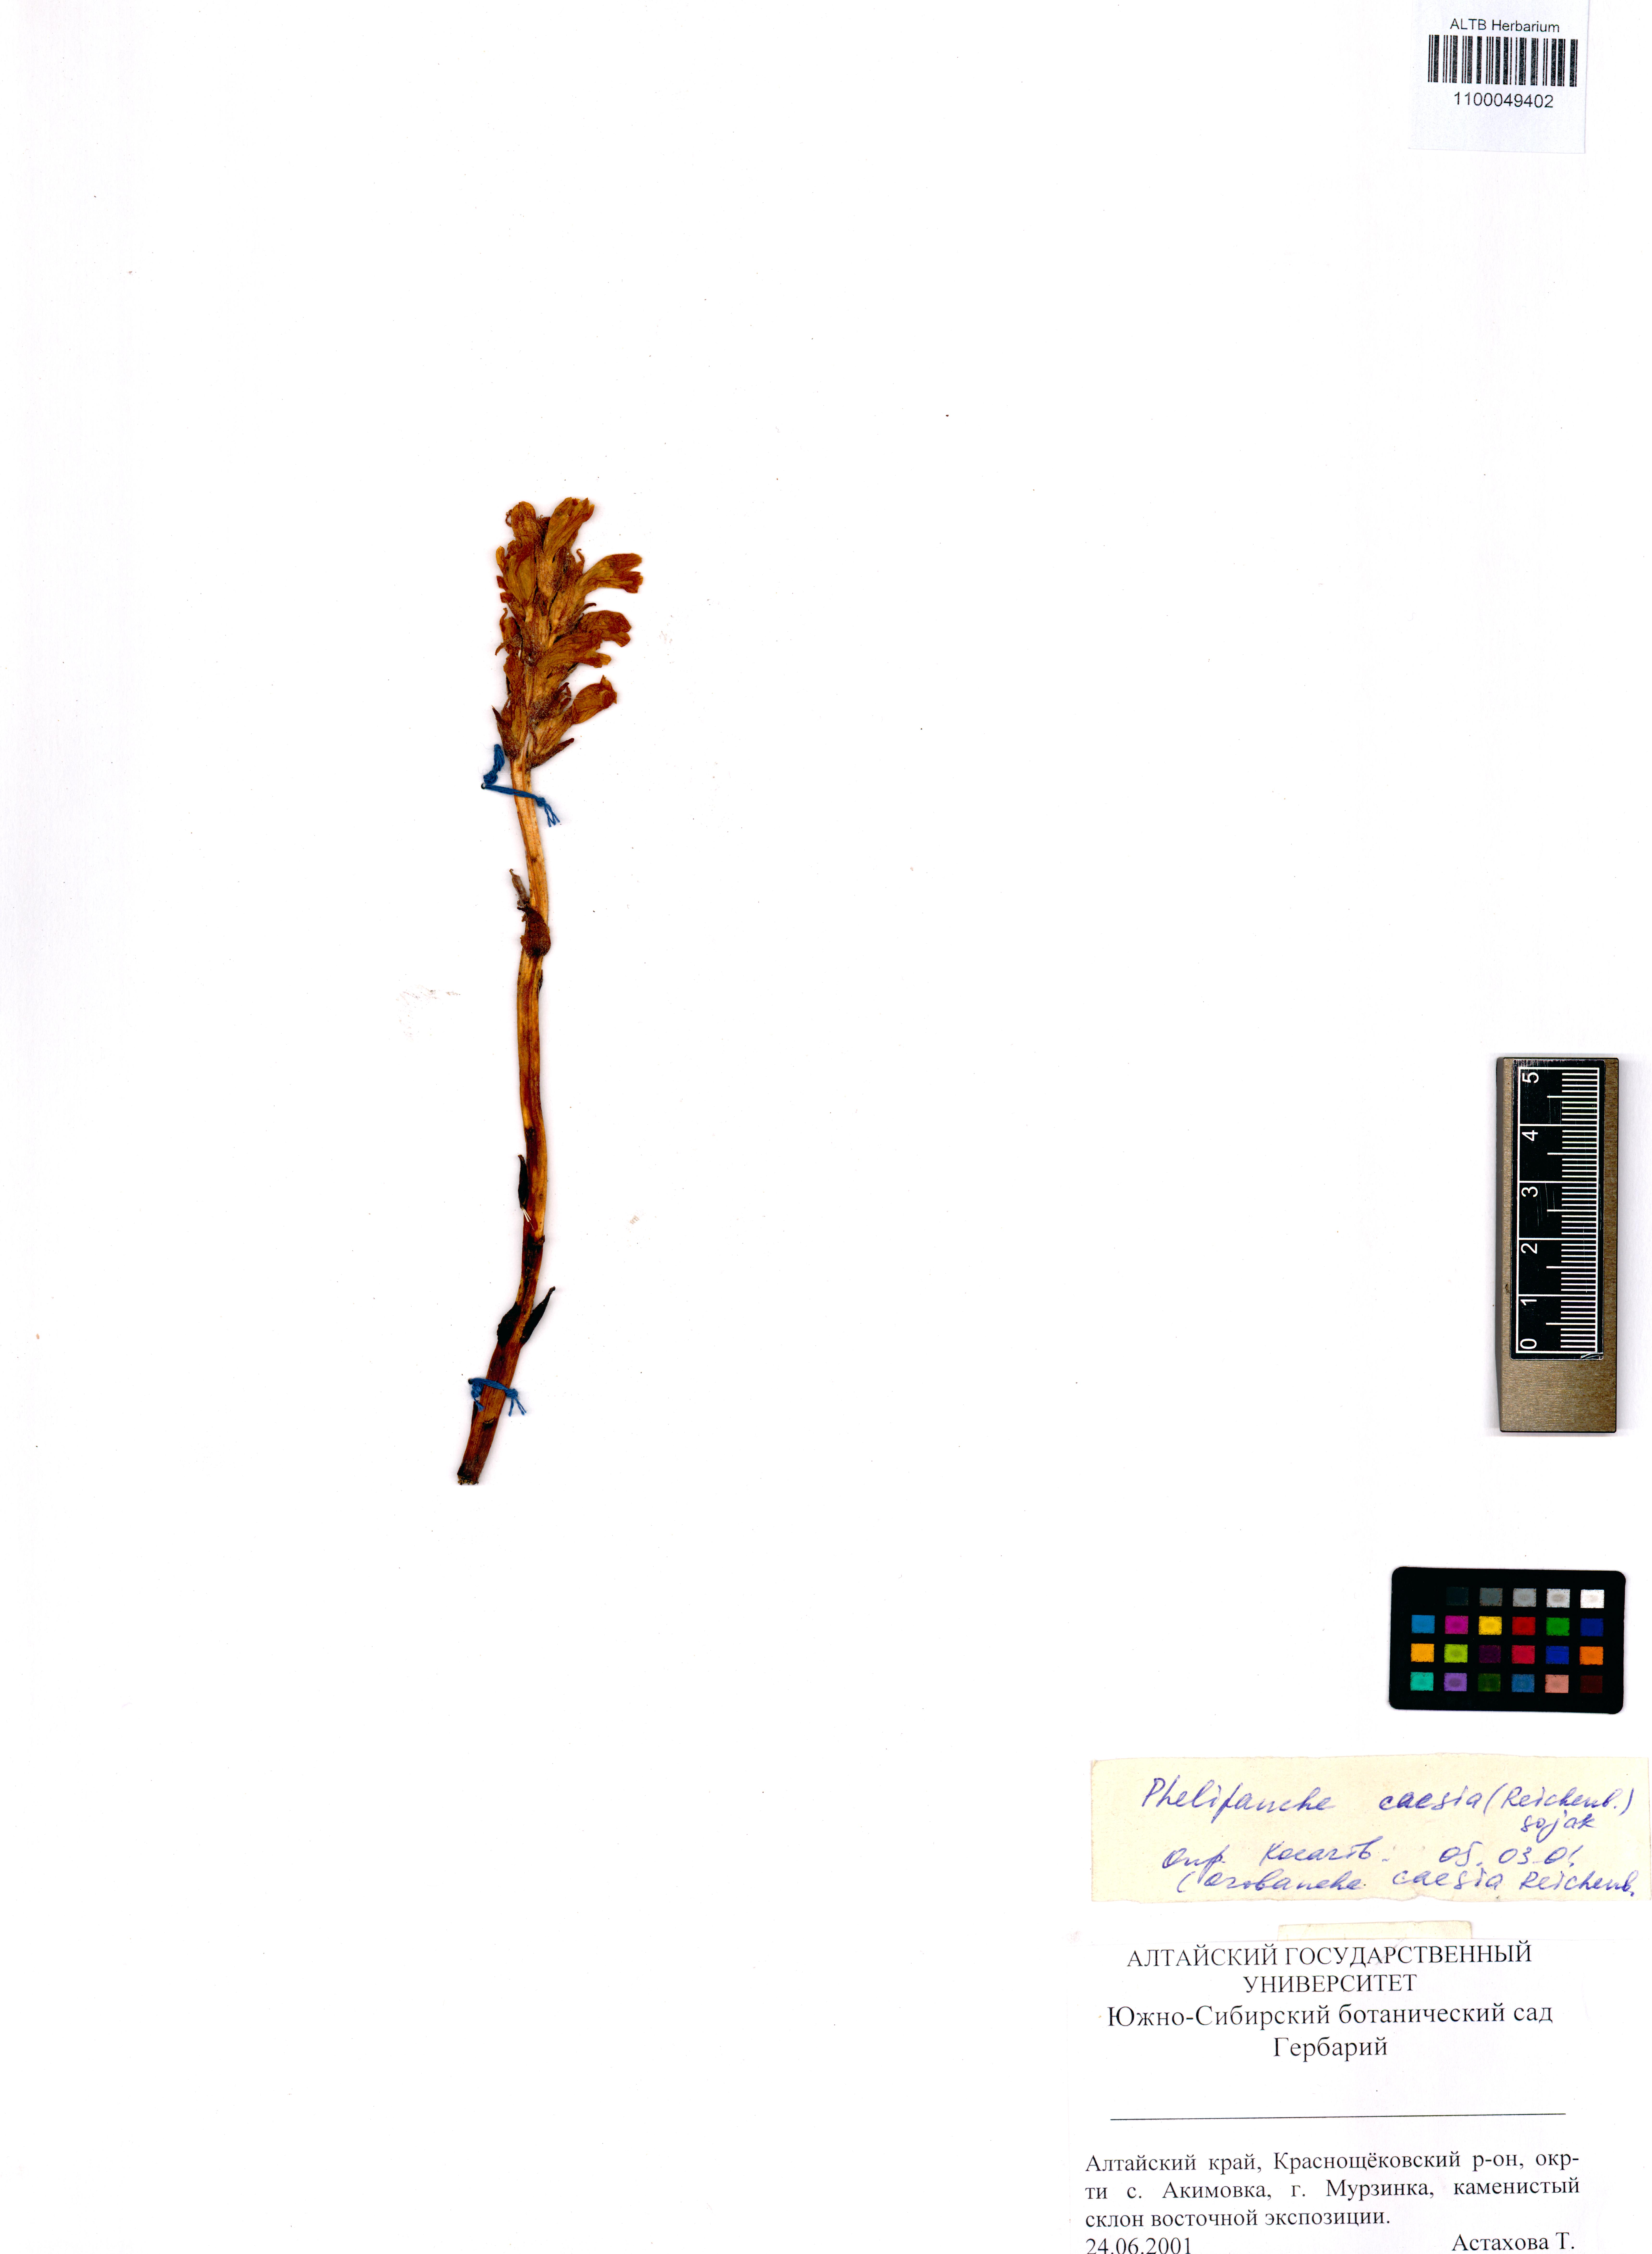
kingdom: Plantae
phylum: Tracheophyta
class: Magnoliopsida
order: Lamiales
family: Orobanchaceae
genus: Phelipanche
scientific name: Phelipanche caesia
